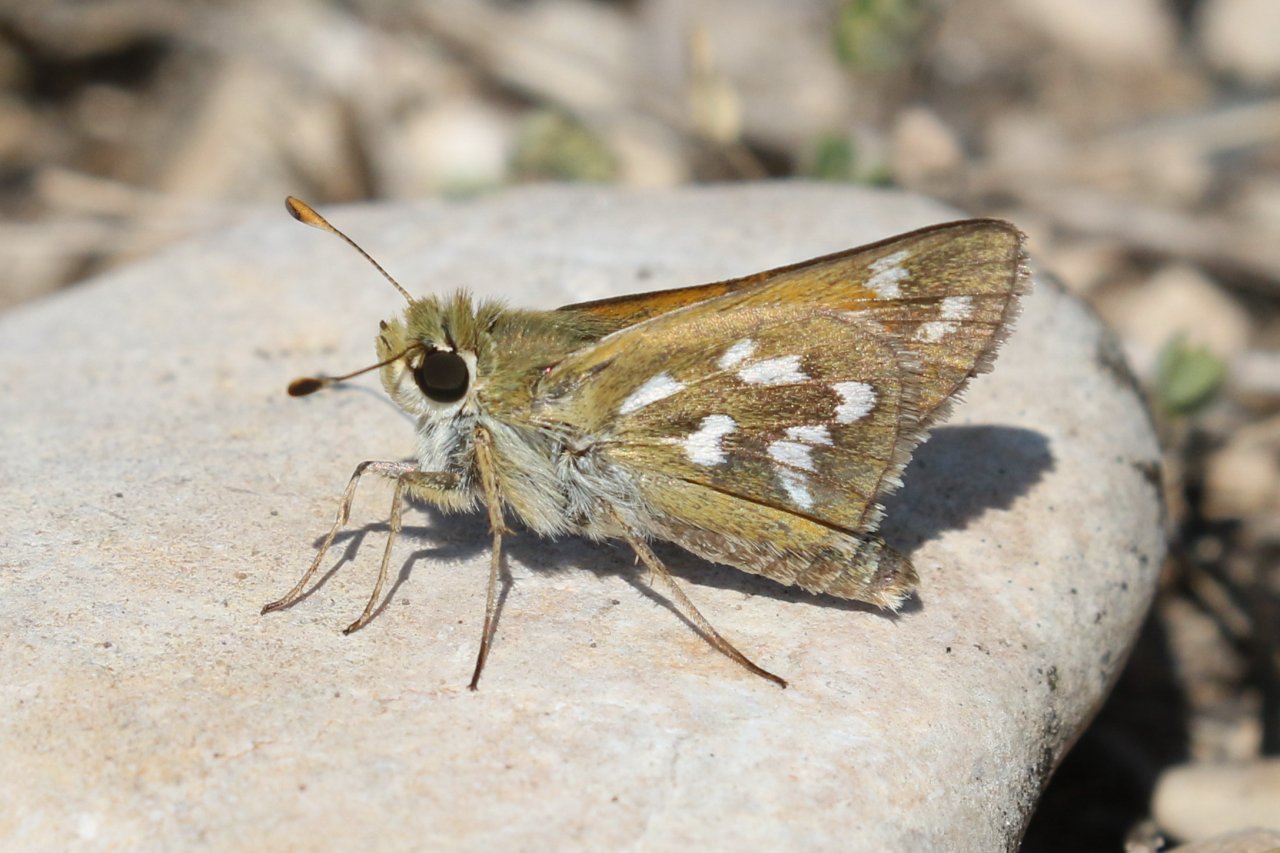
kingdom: Animalia
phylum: Arthropoda
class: Insecta
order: Lepidoptera
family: Hesperiidae
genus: Hesperia
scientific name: Hesperia viridis
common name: Green Skipper
